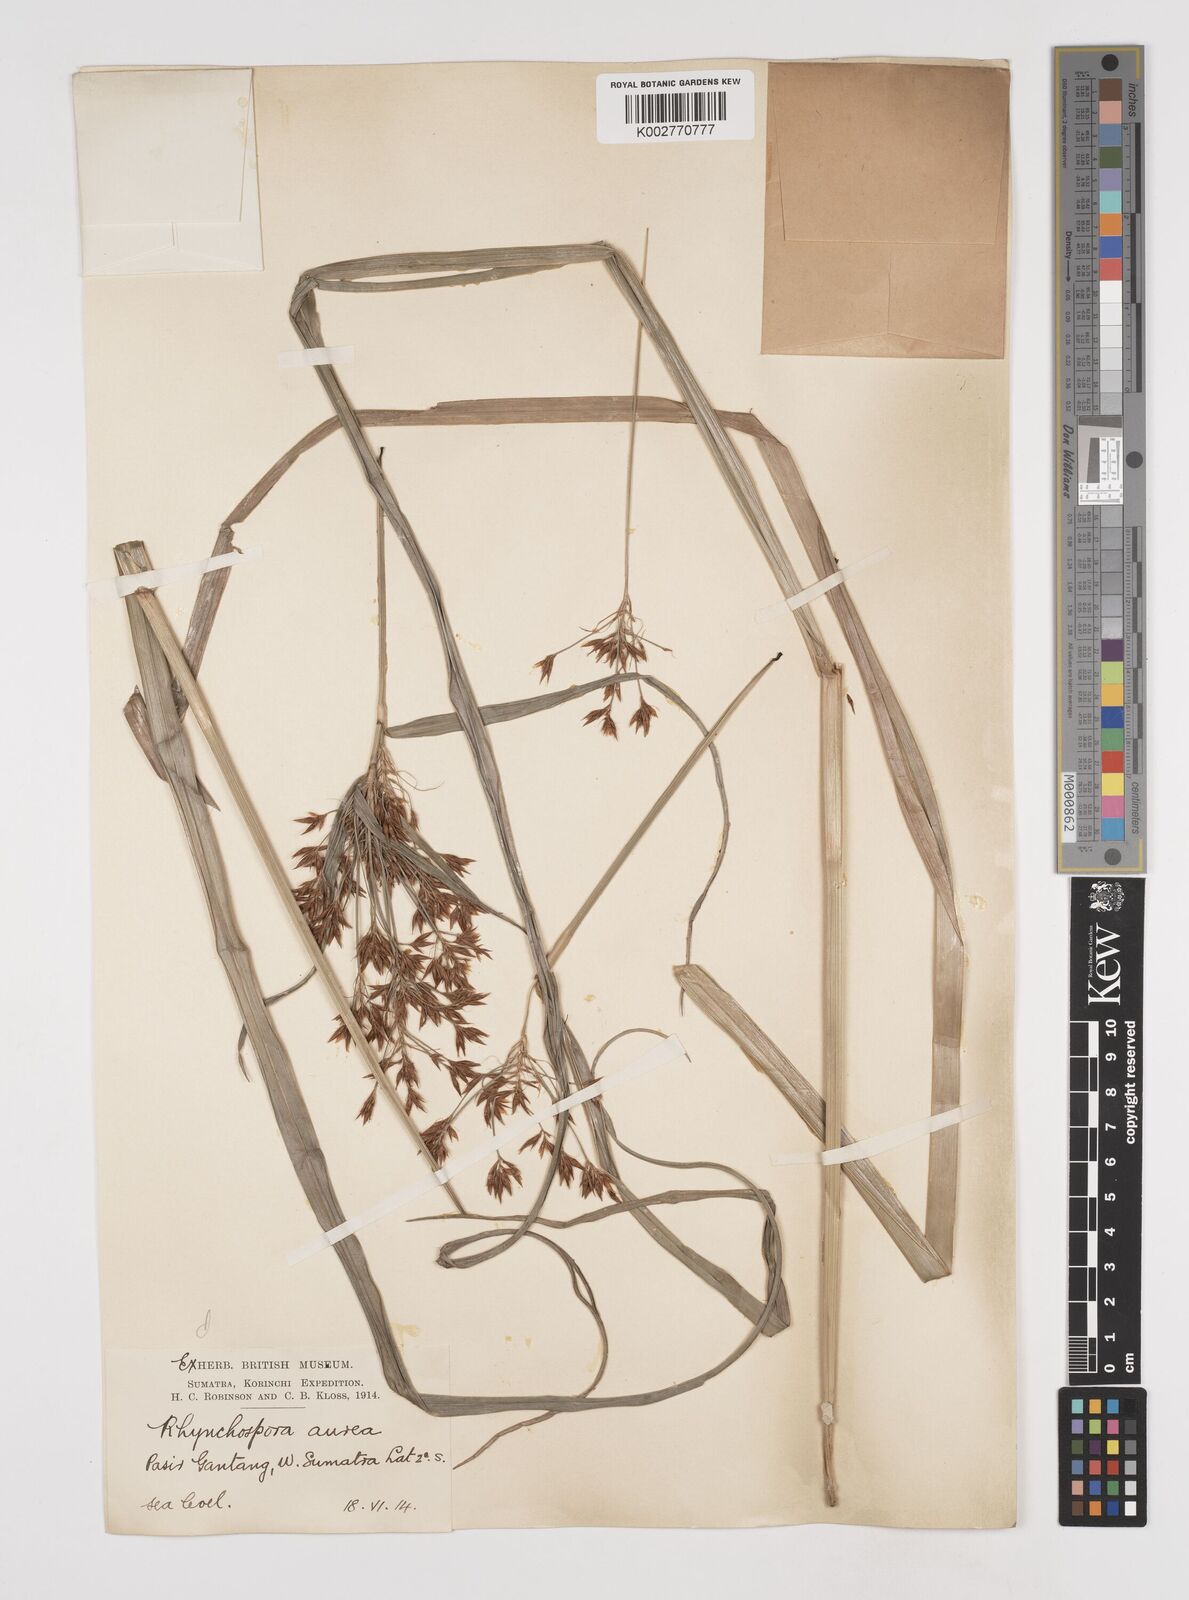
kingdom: Plantae
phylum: Tracheophyta
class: Liliopsida
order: Poales
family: Cyperaceae
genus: Rhynchospora
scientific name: Rhynchospora corymbosa
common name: Golden beak sedge
